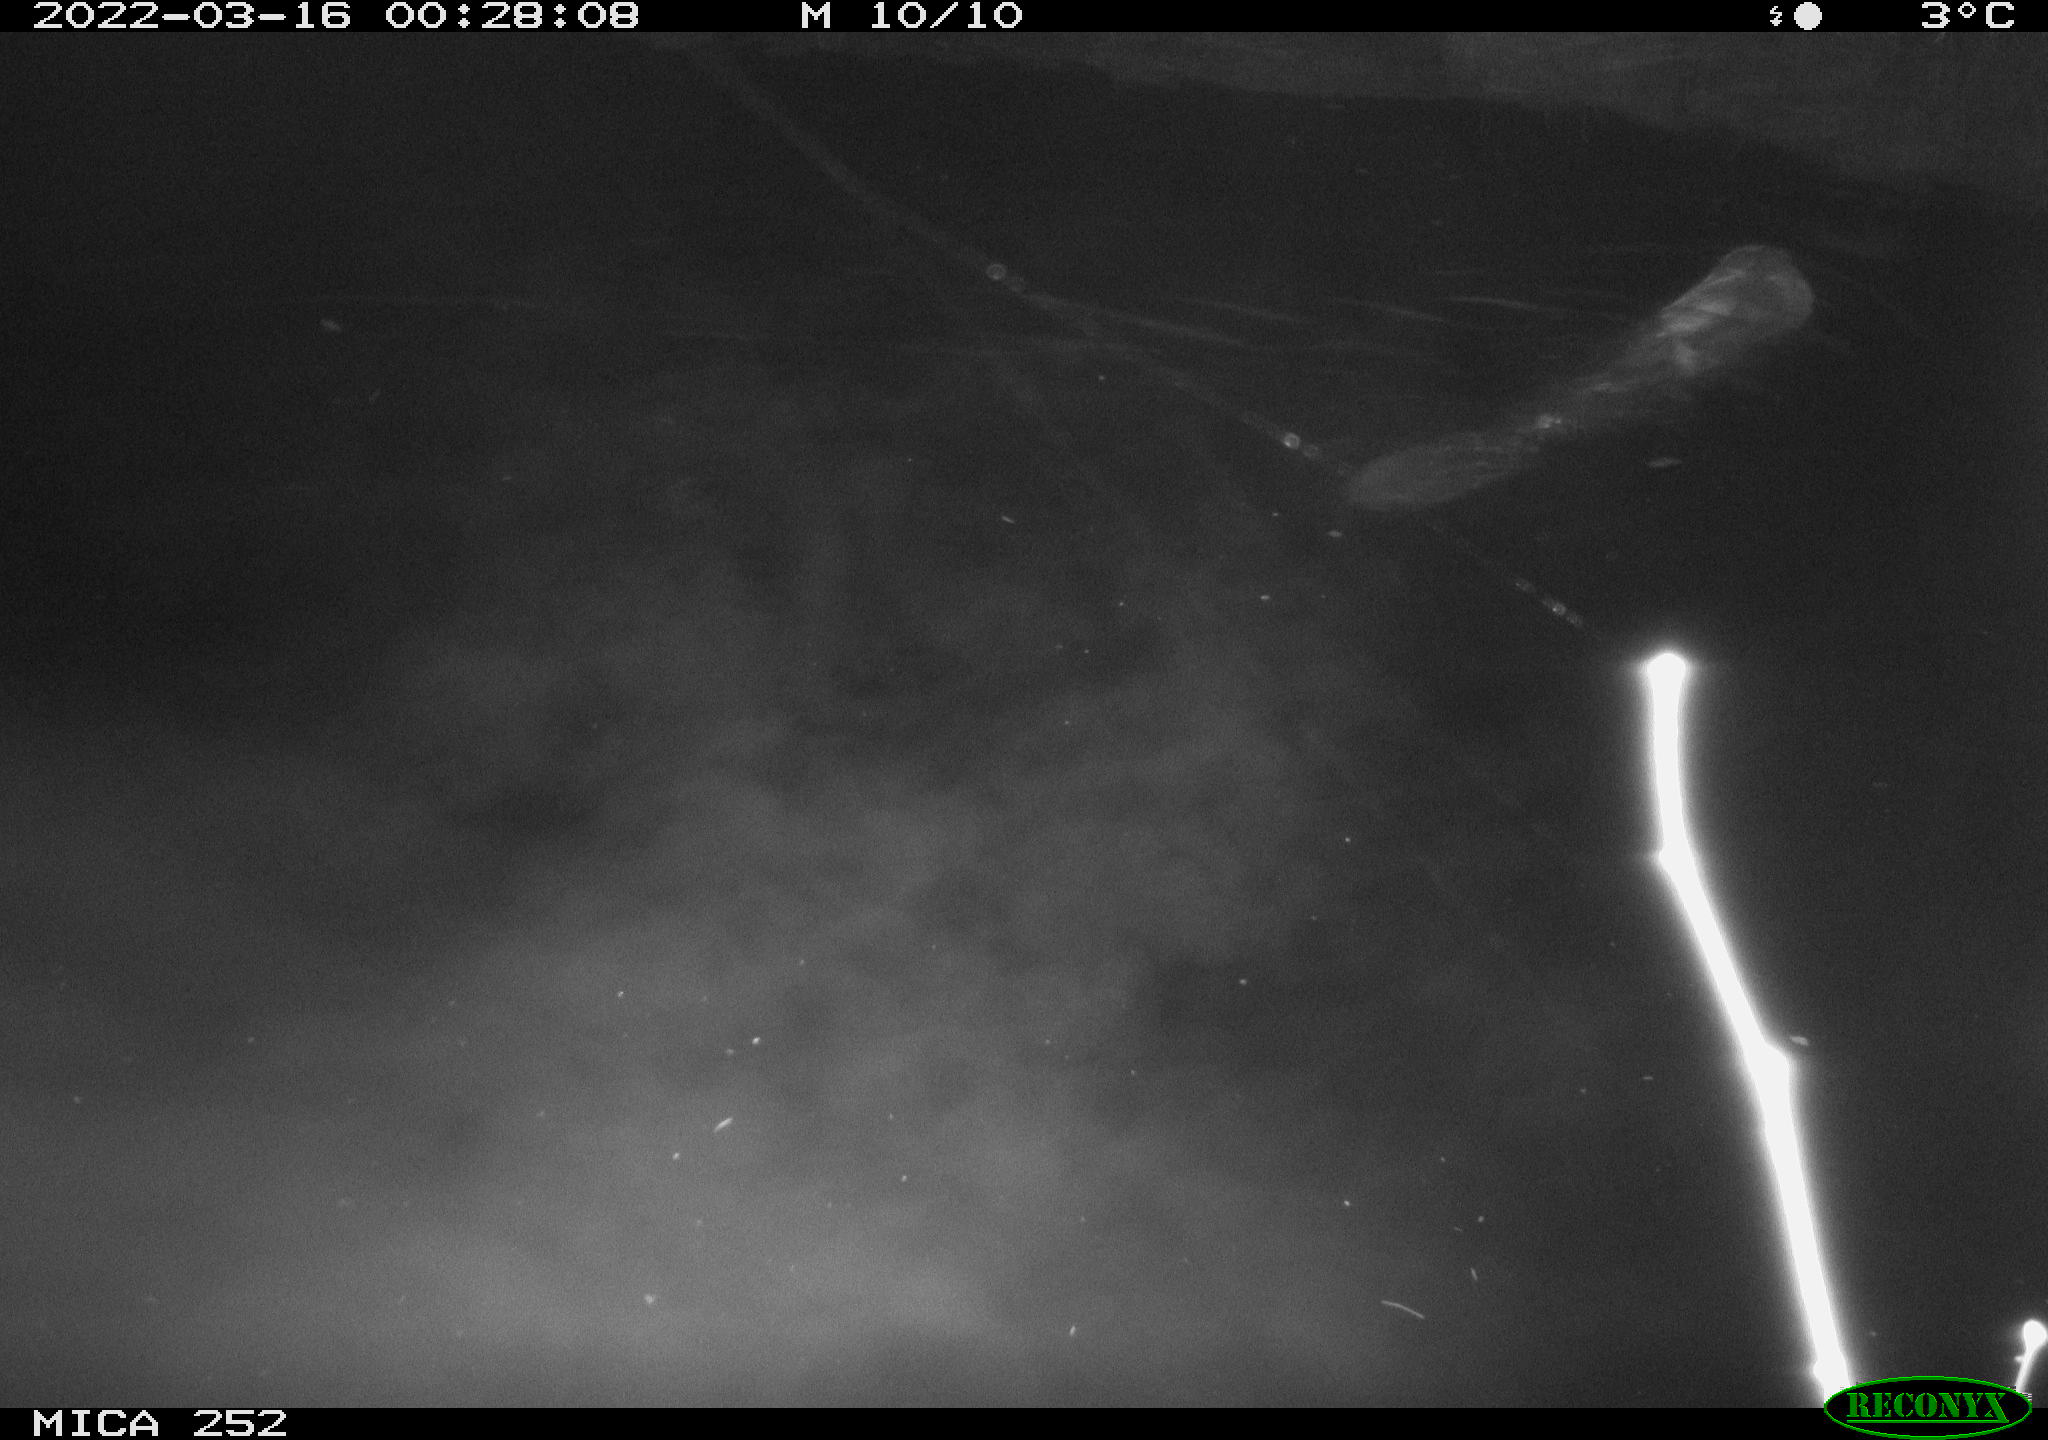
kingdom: Animalia
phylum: Chordata
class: Mammalia
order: Rodentia
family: Castoridae
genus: Castor
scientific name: Castor fiber
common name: Eurasian beaver
